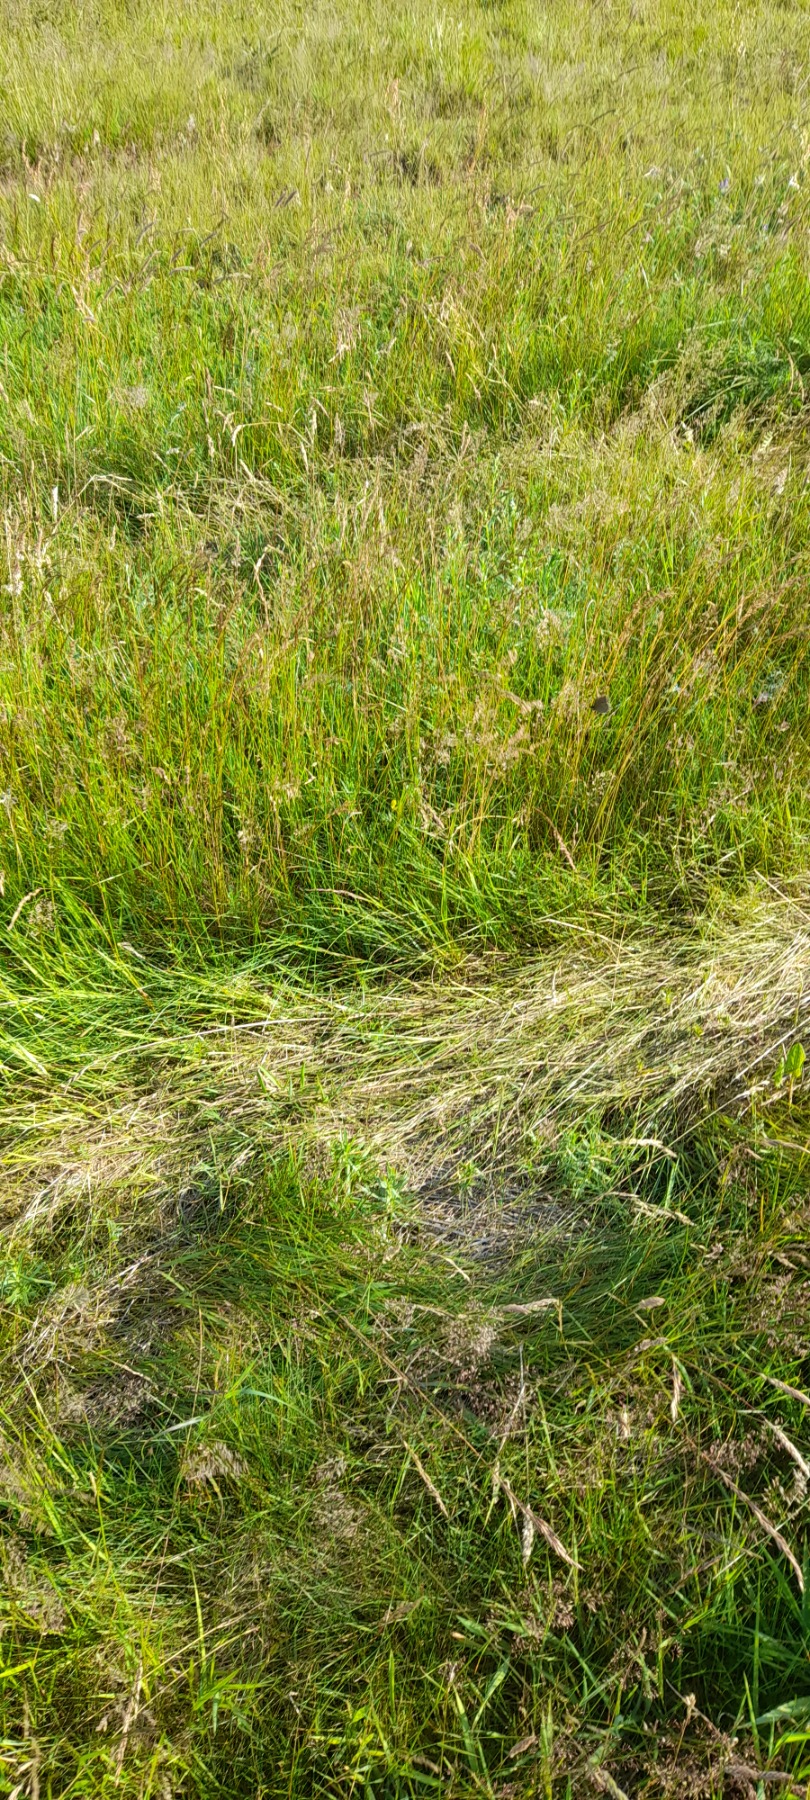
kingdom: Animalia
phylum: Arthropoda
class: Insecta
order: Lepidoptera
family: Nymphalidae
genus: Aphantopus
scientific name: Aphantopus hyperantus
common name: Engrandøje
